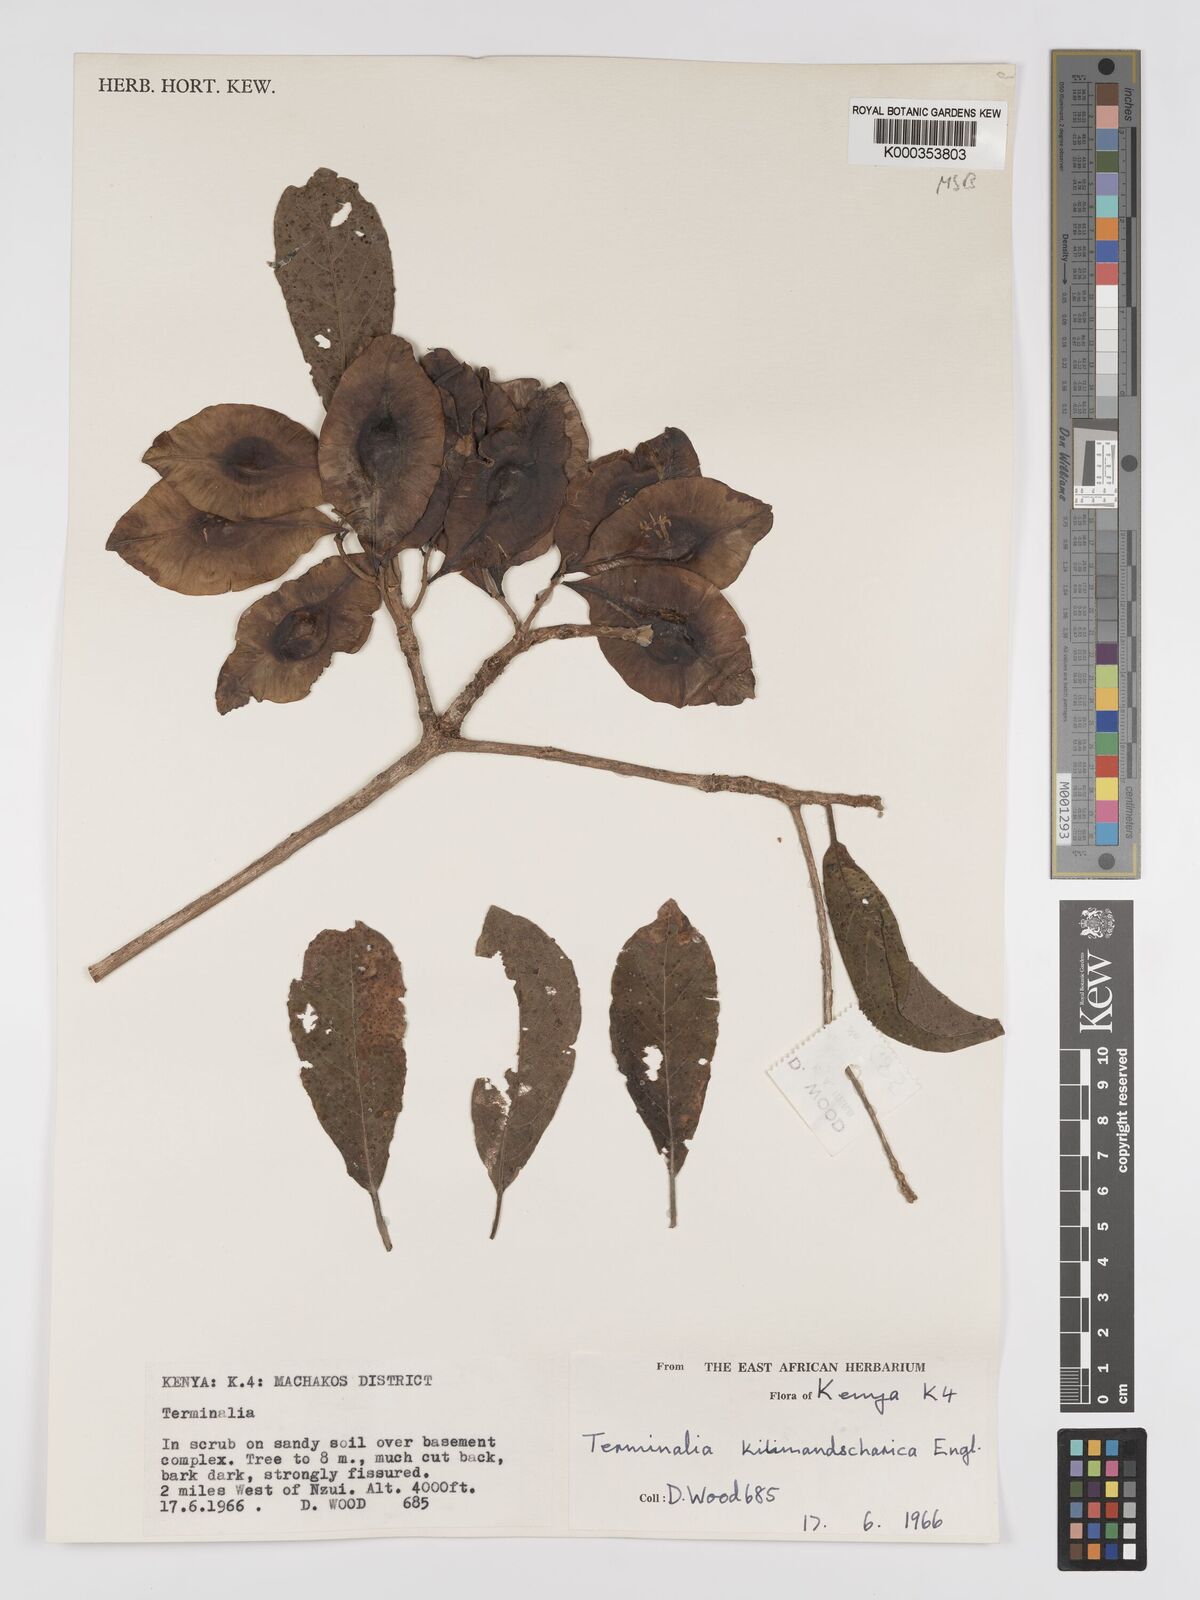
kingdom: Plantae
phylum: Tracheophyta
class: Magnoliopsida
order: Myrtales
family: Combretaceae
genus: Terminalia
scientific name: Terminalia kilimandscharica
